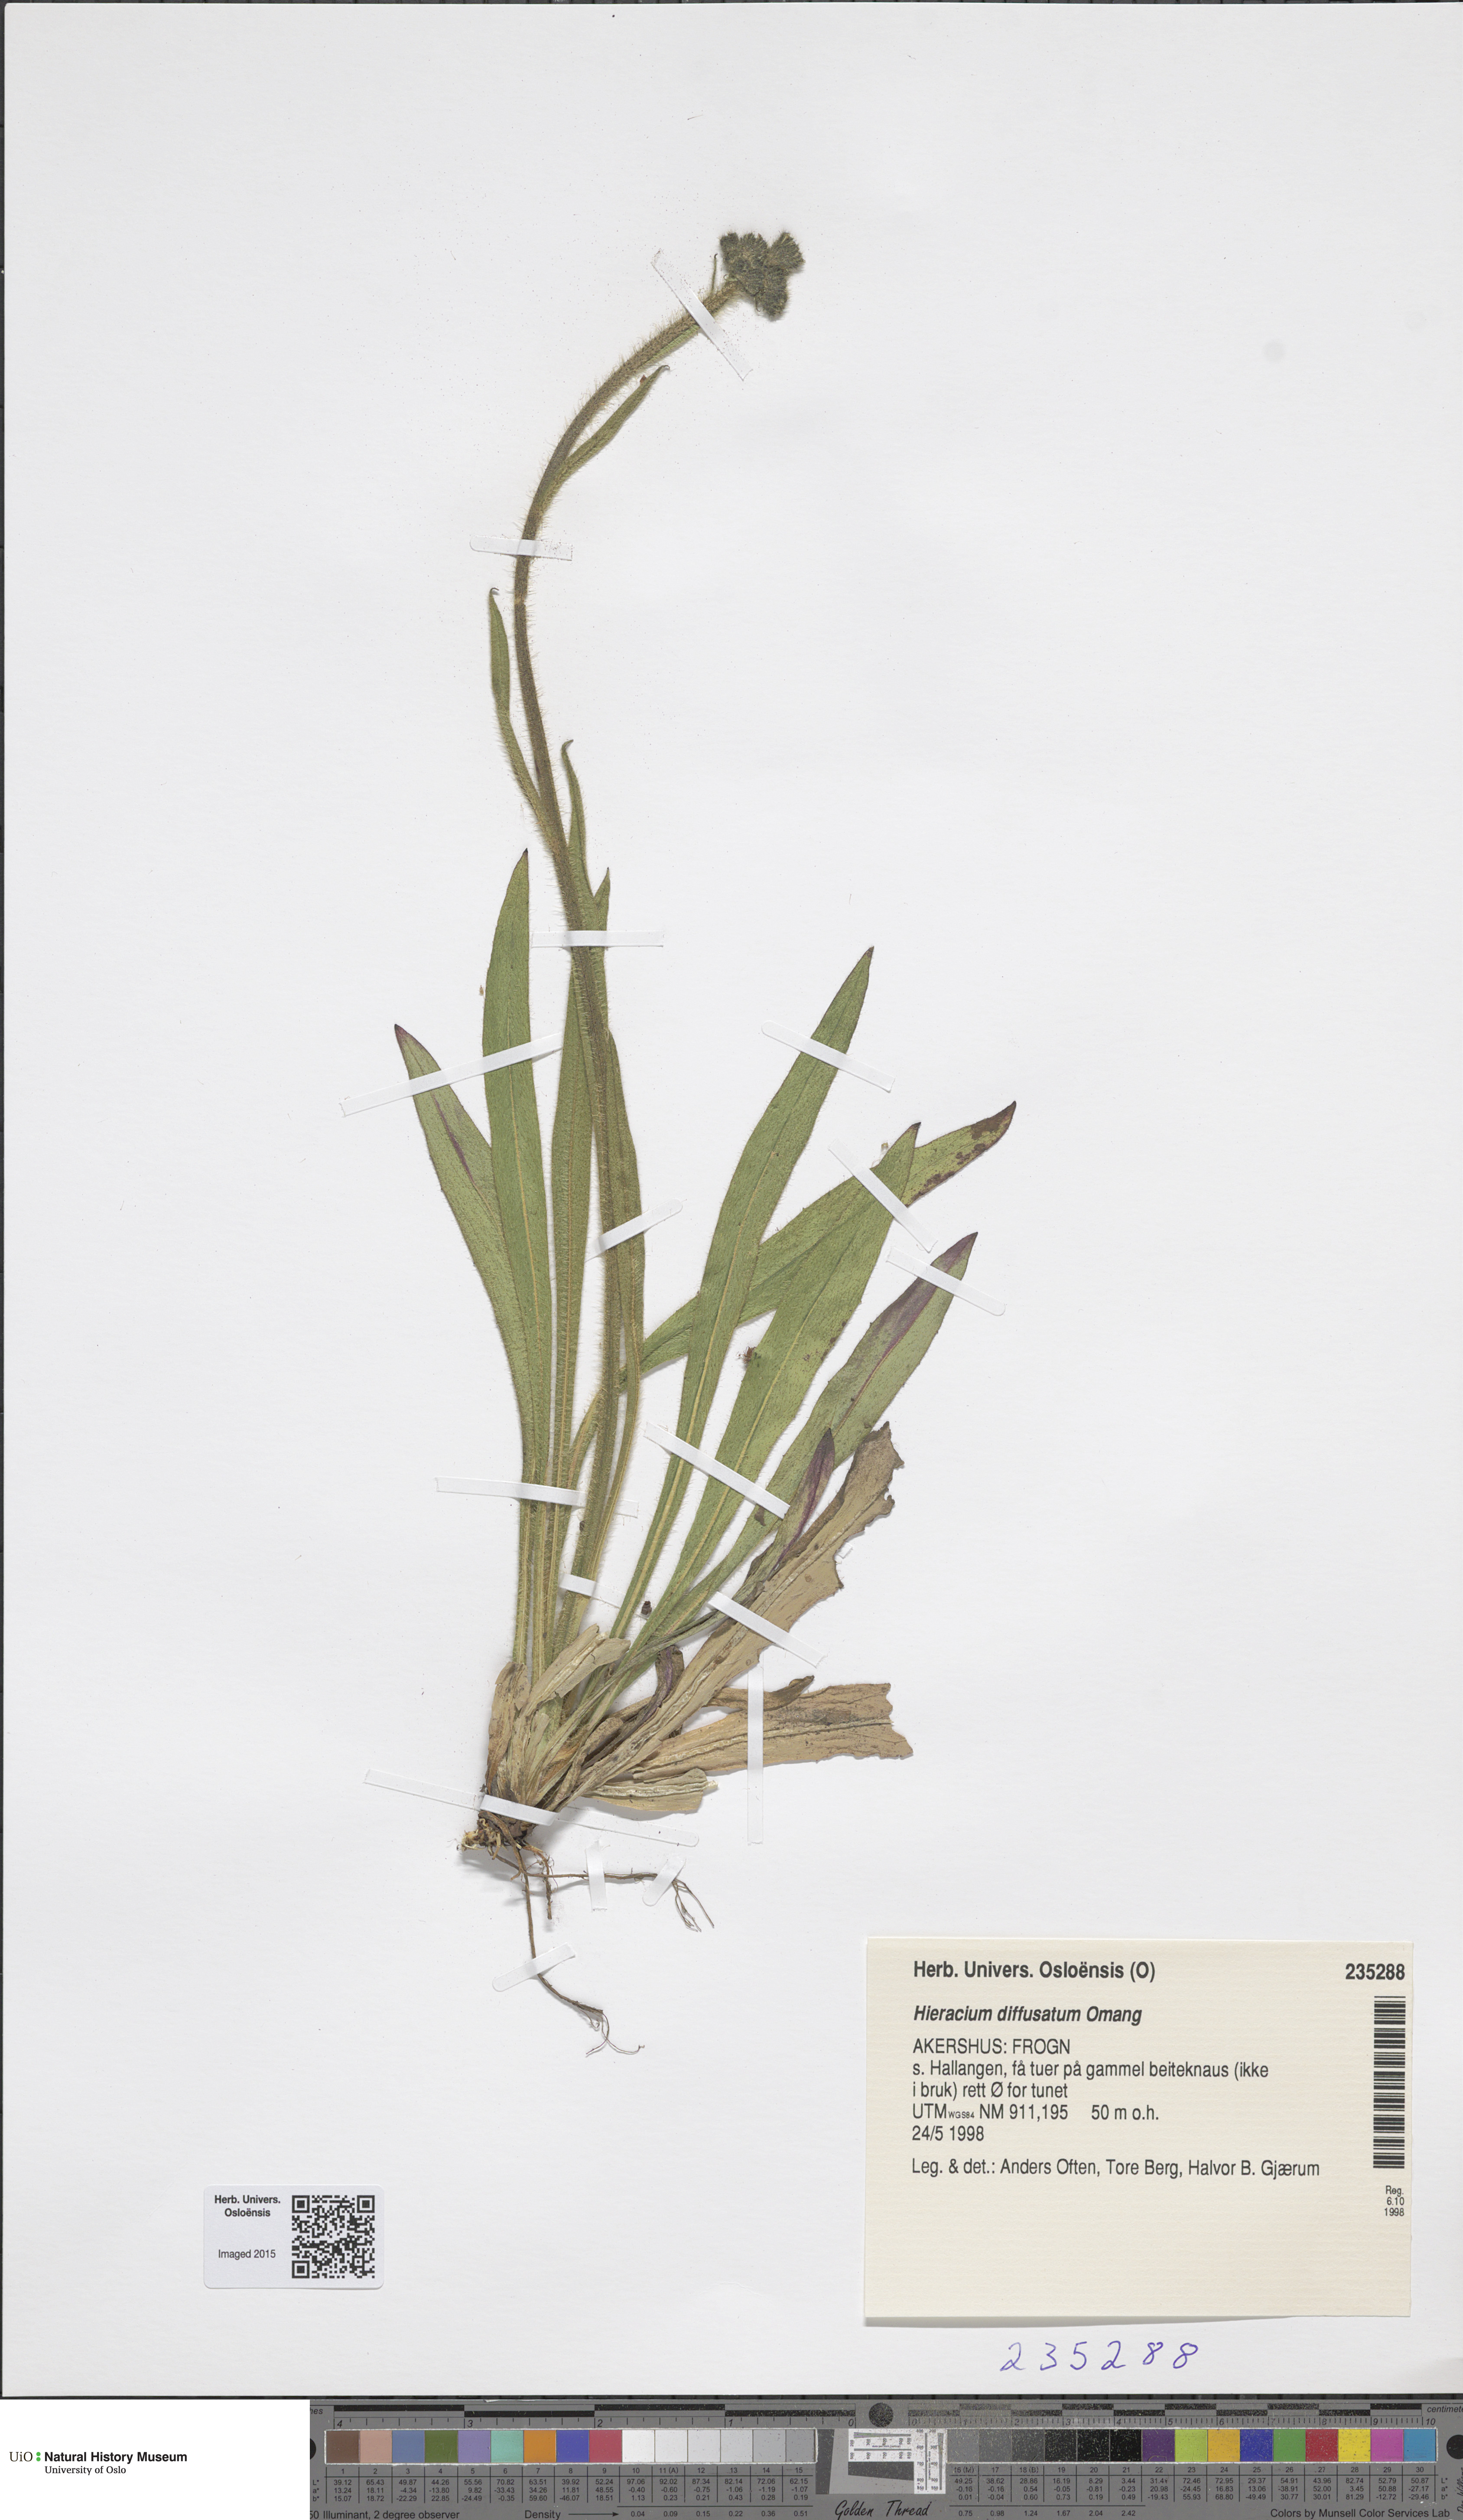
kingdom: Plantae
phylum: Tracheophyta
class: Magnoliopsida
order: Asterales
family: Asteraceae
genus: Pilosella
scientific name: Pilosella dubia
